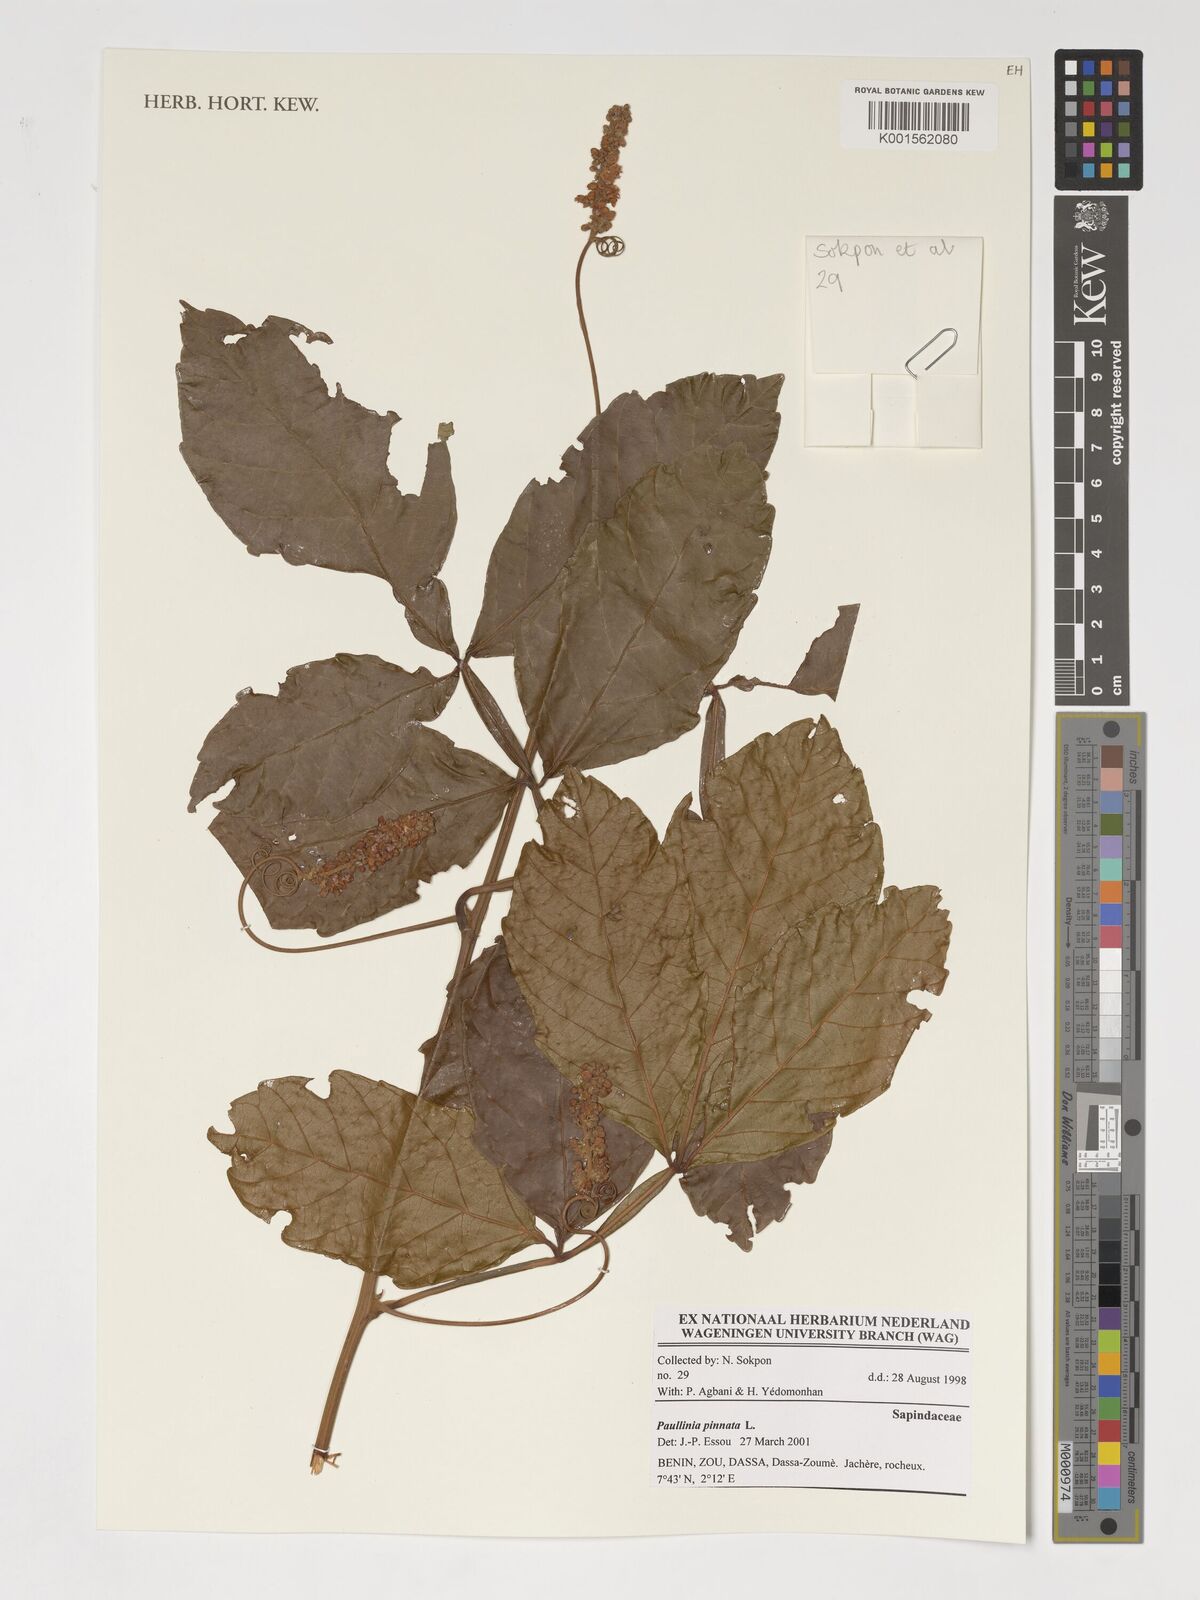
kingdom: Plantae
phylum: Tracheophyta
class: Magnoliopsida
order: Sapindales
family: Sapindaceae
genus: Paullinia
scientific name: Paullinia pinnata
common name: Barbasco
